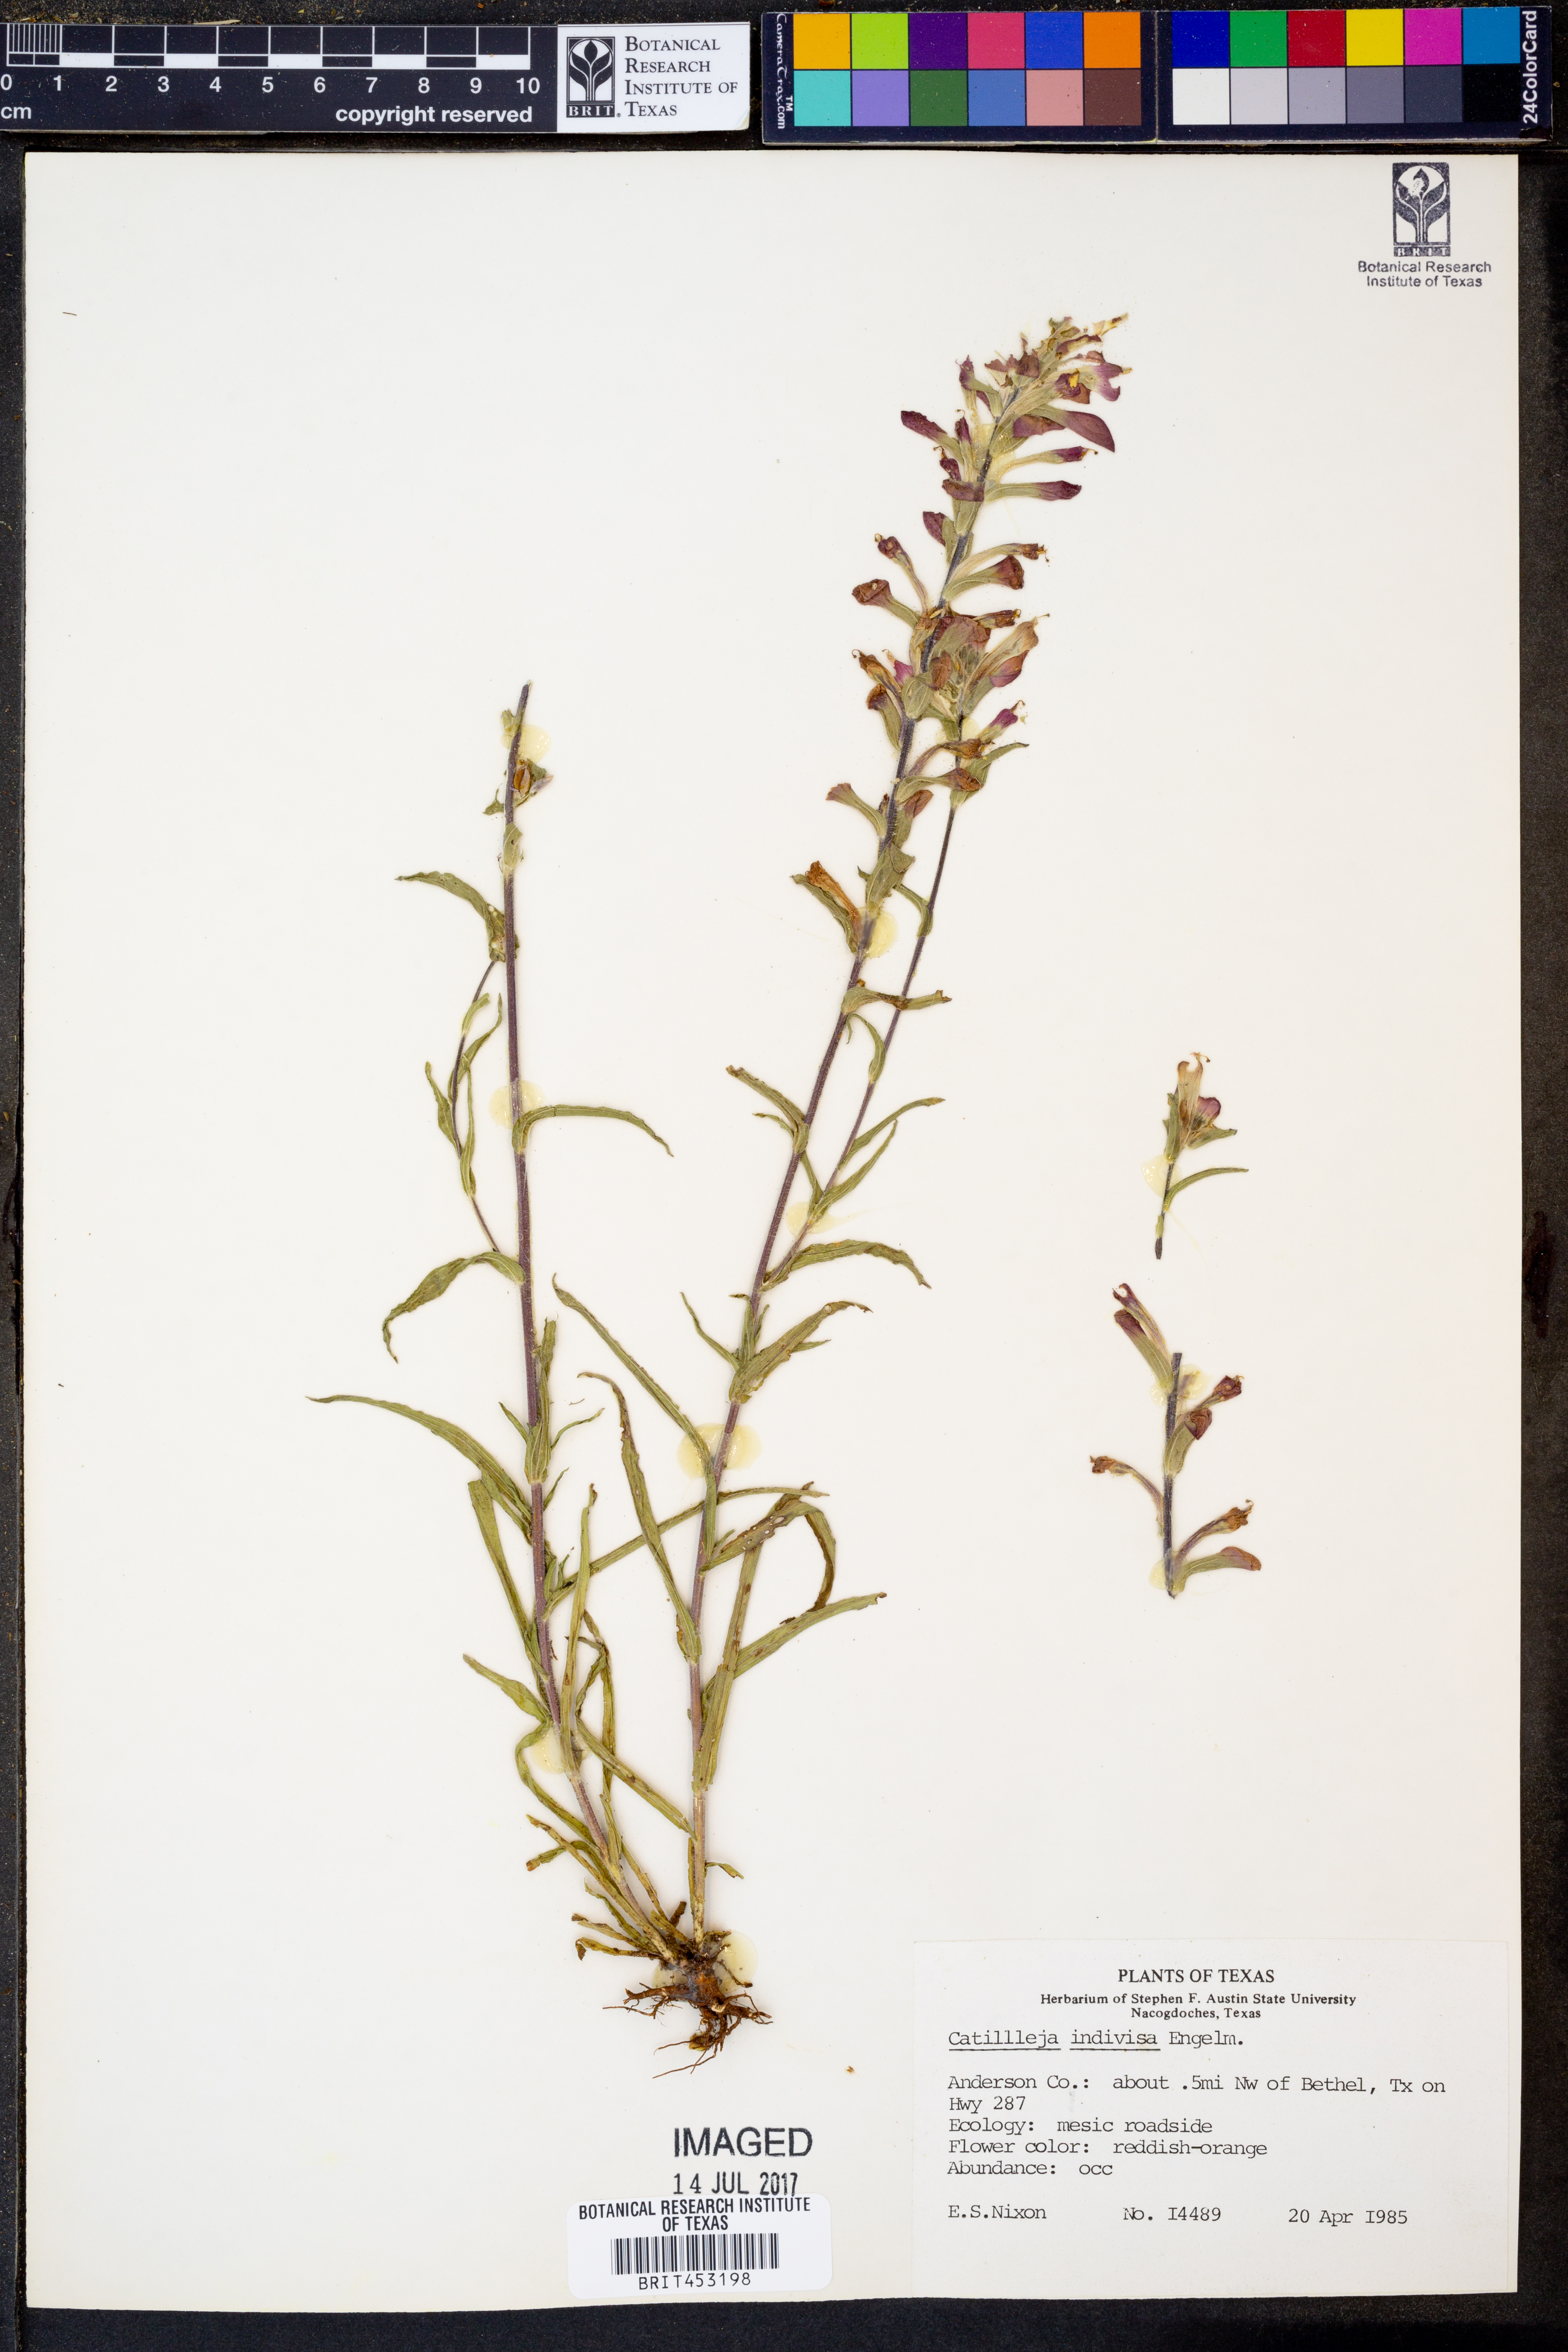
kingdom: Plantae
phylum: Tracheophyta
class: Magnoliopsida
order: Lamiales
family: Orobanchaceae
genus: Castilleja
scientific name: Castilleja indivisa
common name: Texas paintbrush
